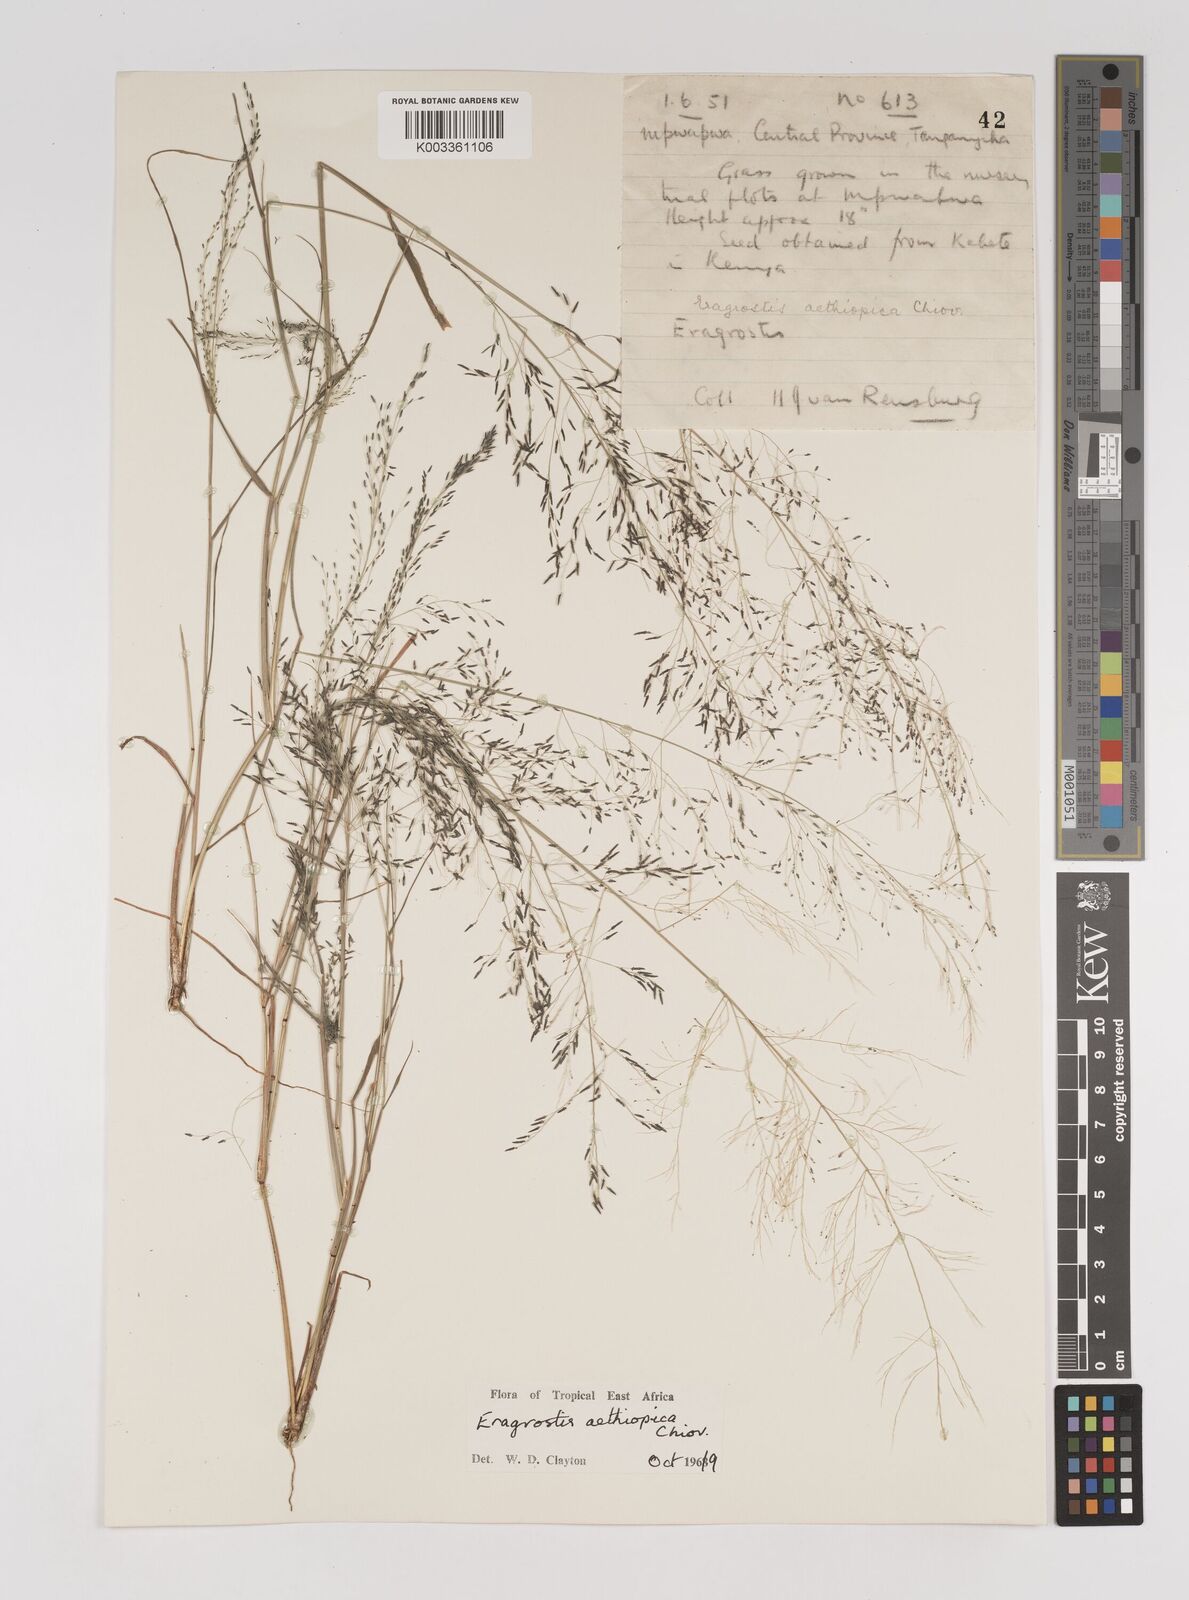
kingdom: Plantae
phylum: Tracheophyta
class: Liliopsida
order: Poales
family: Poaceae
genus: Eragrostis
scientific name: Eragrostis aethiopica
